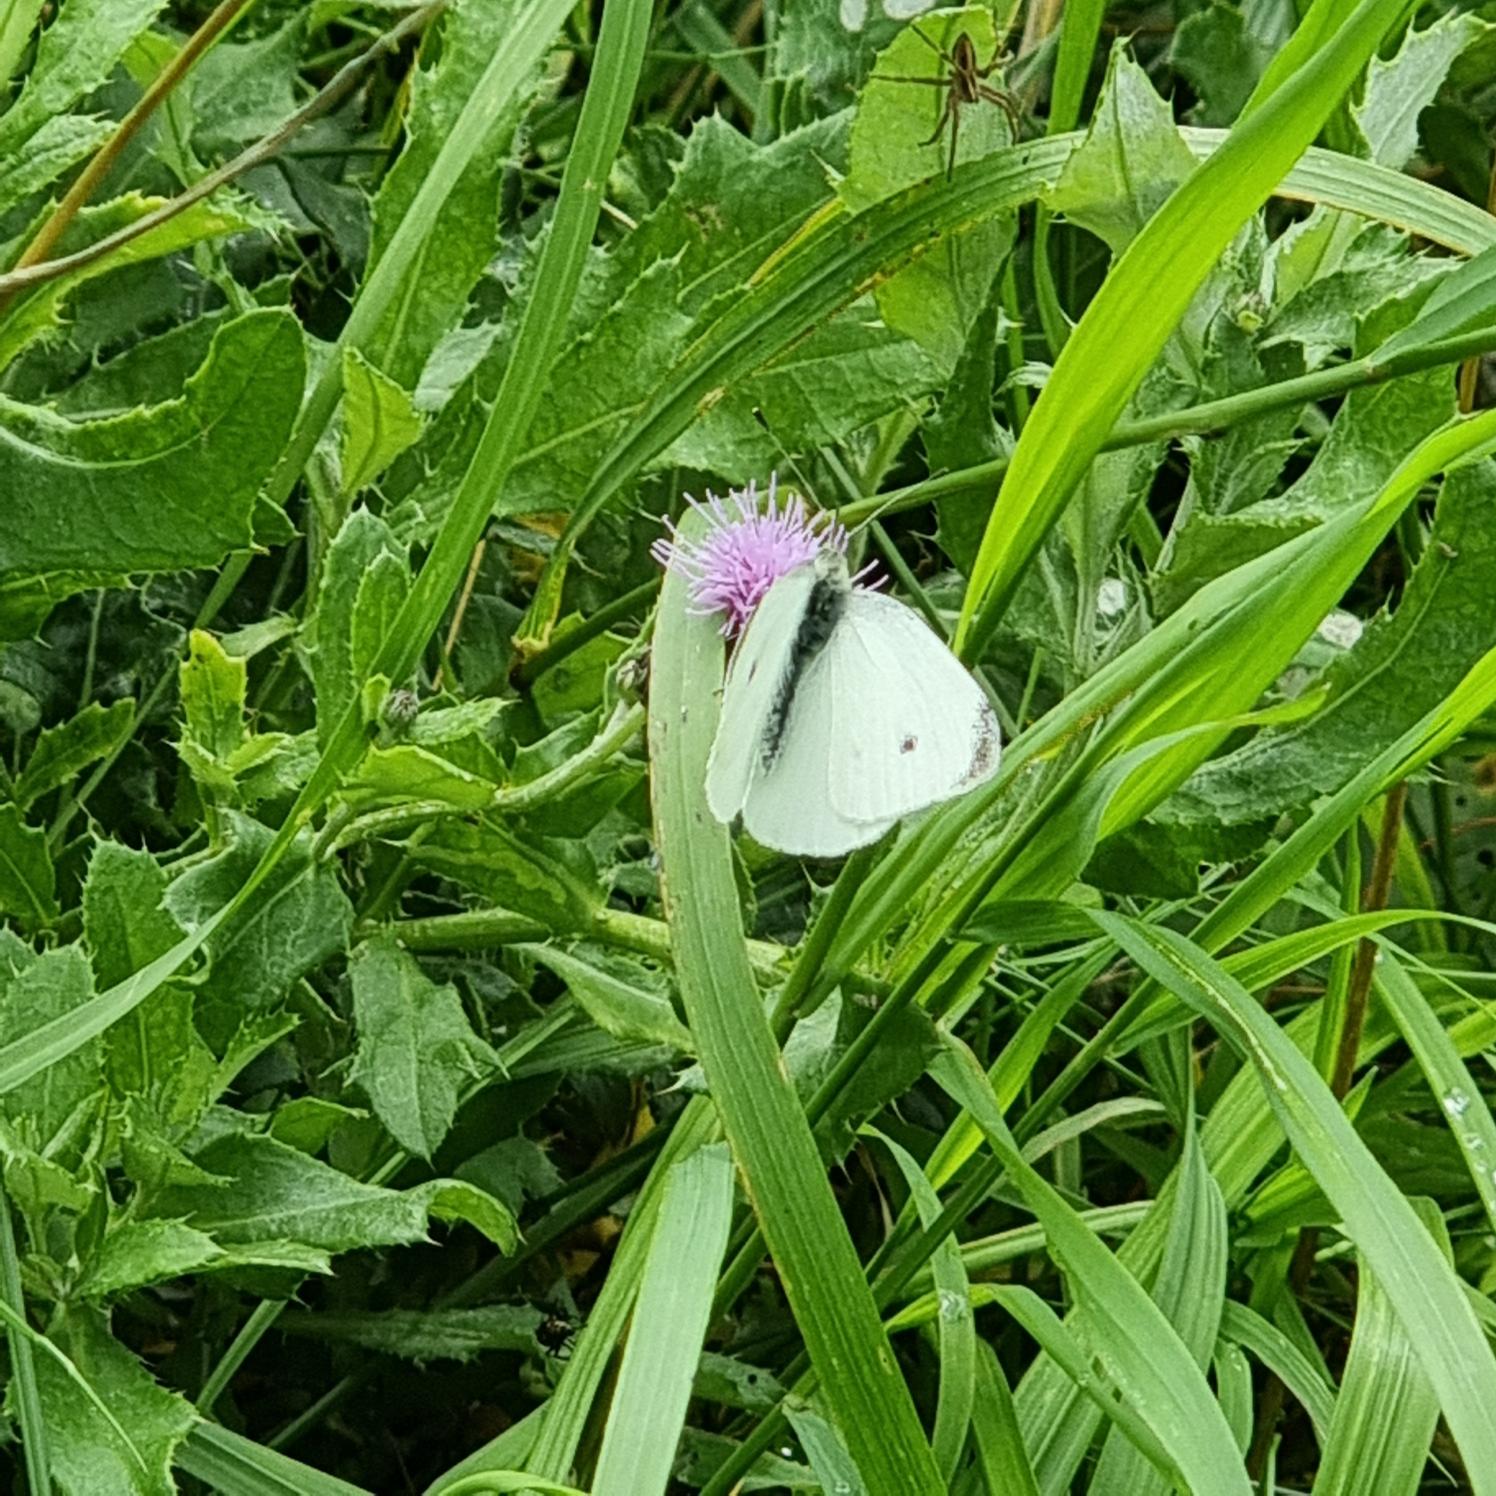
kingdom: Animalia
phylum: Arthropoda
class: Insecta
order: Lepidoptera
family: Pieridae
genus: Pieris
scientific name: Pieris rapae
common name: Lille kålsommerfugl
